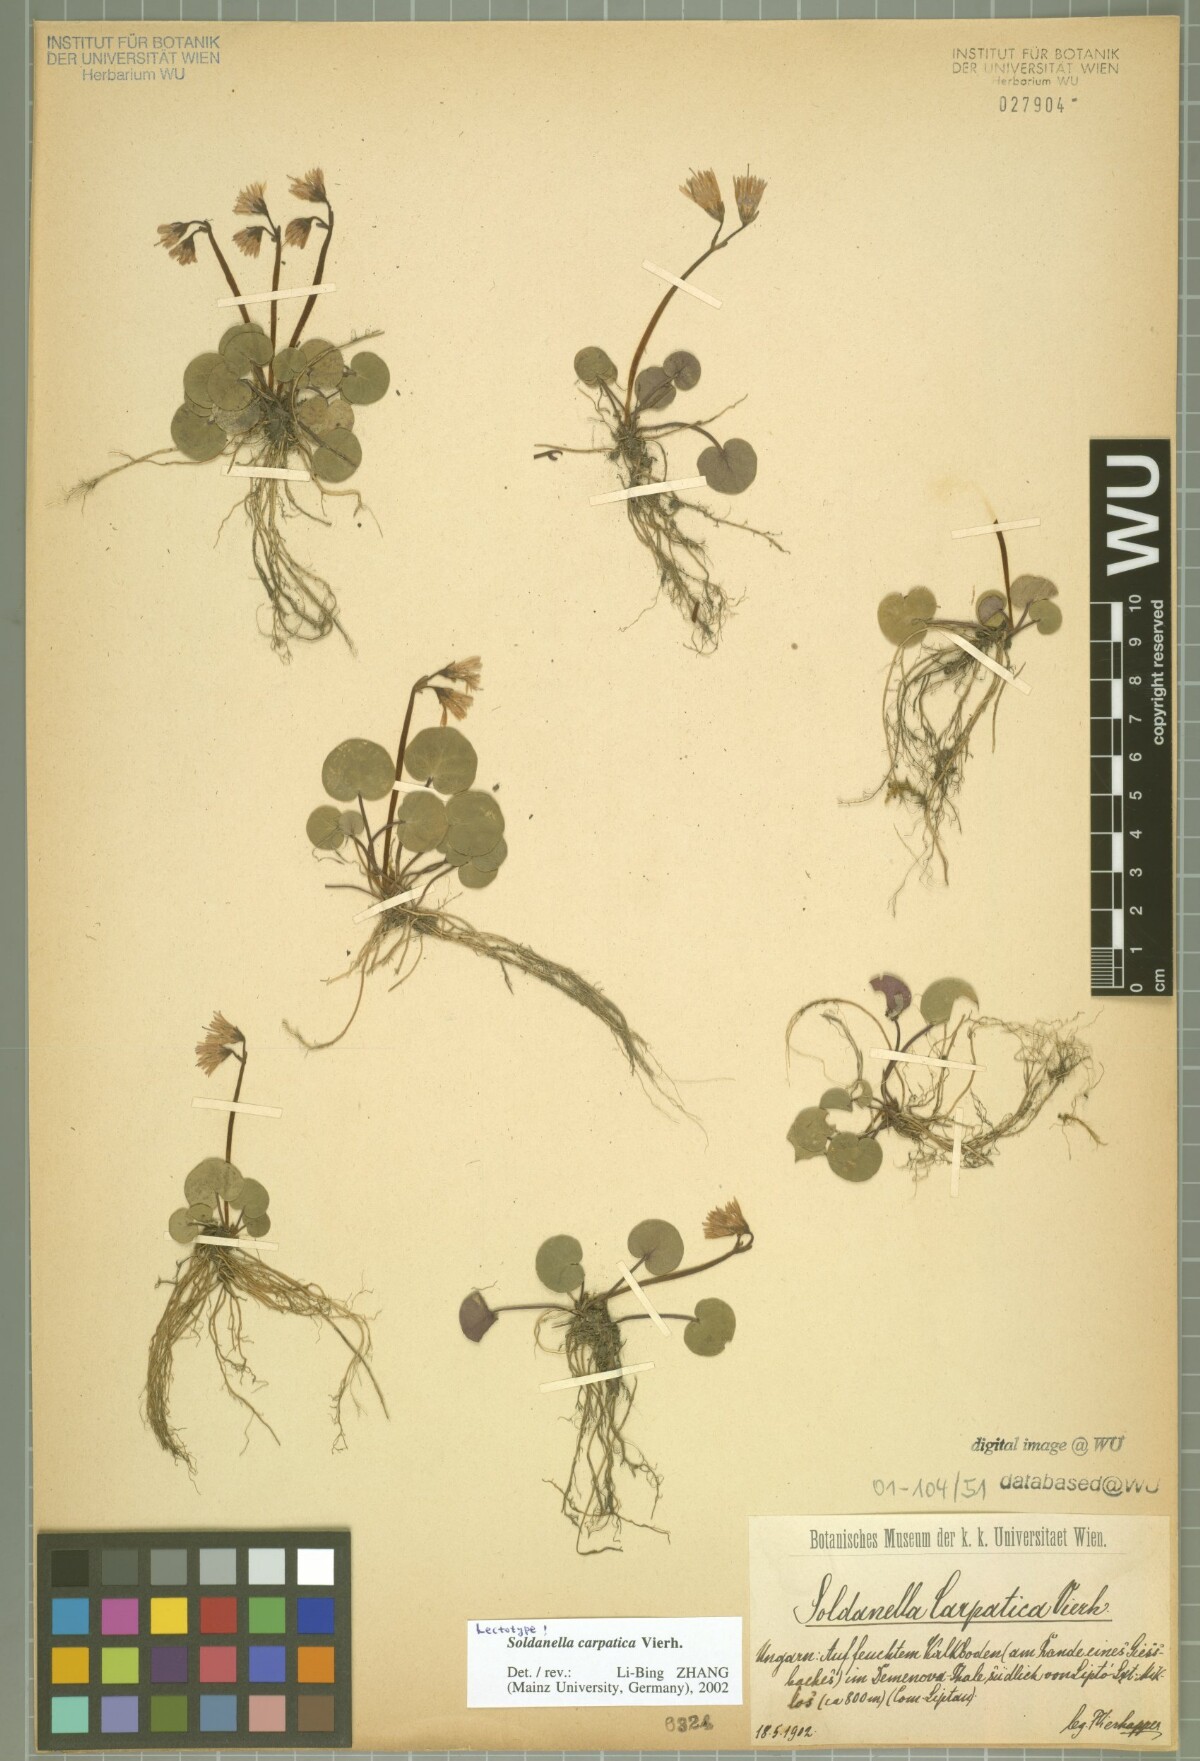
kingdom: Plantae
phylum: Tracheophyta
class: Magnoliopsida
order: Ericales
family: Primulaceae
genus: Soldanella
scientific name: Soldanella carpatica
